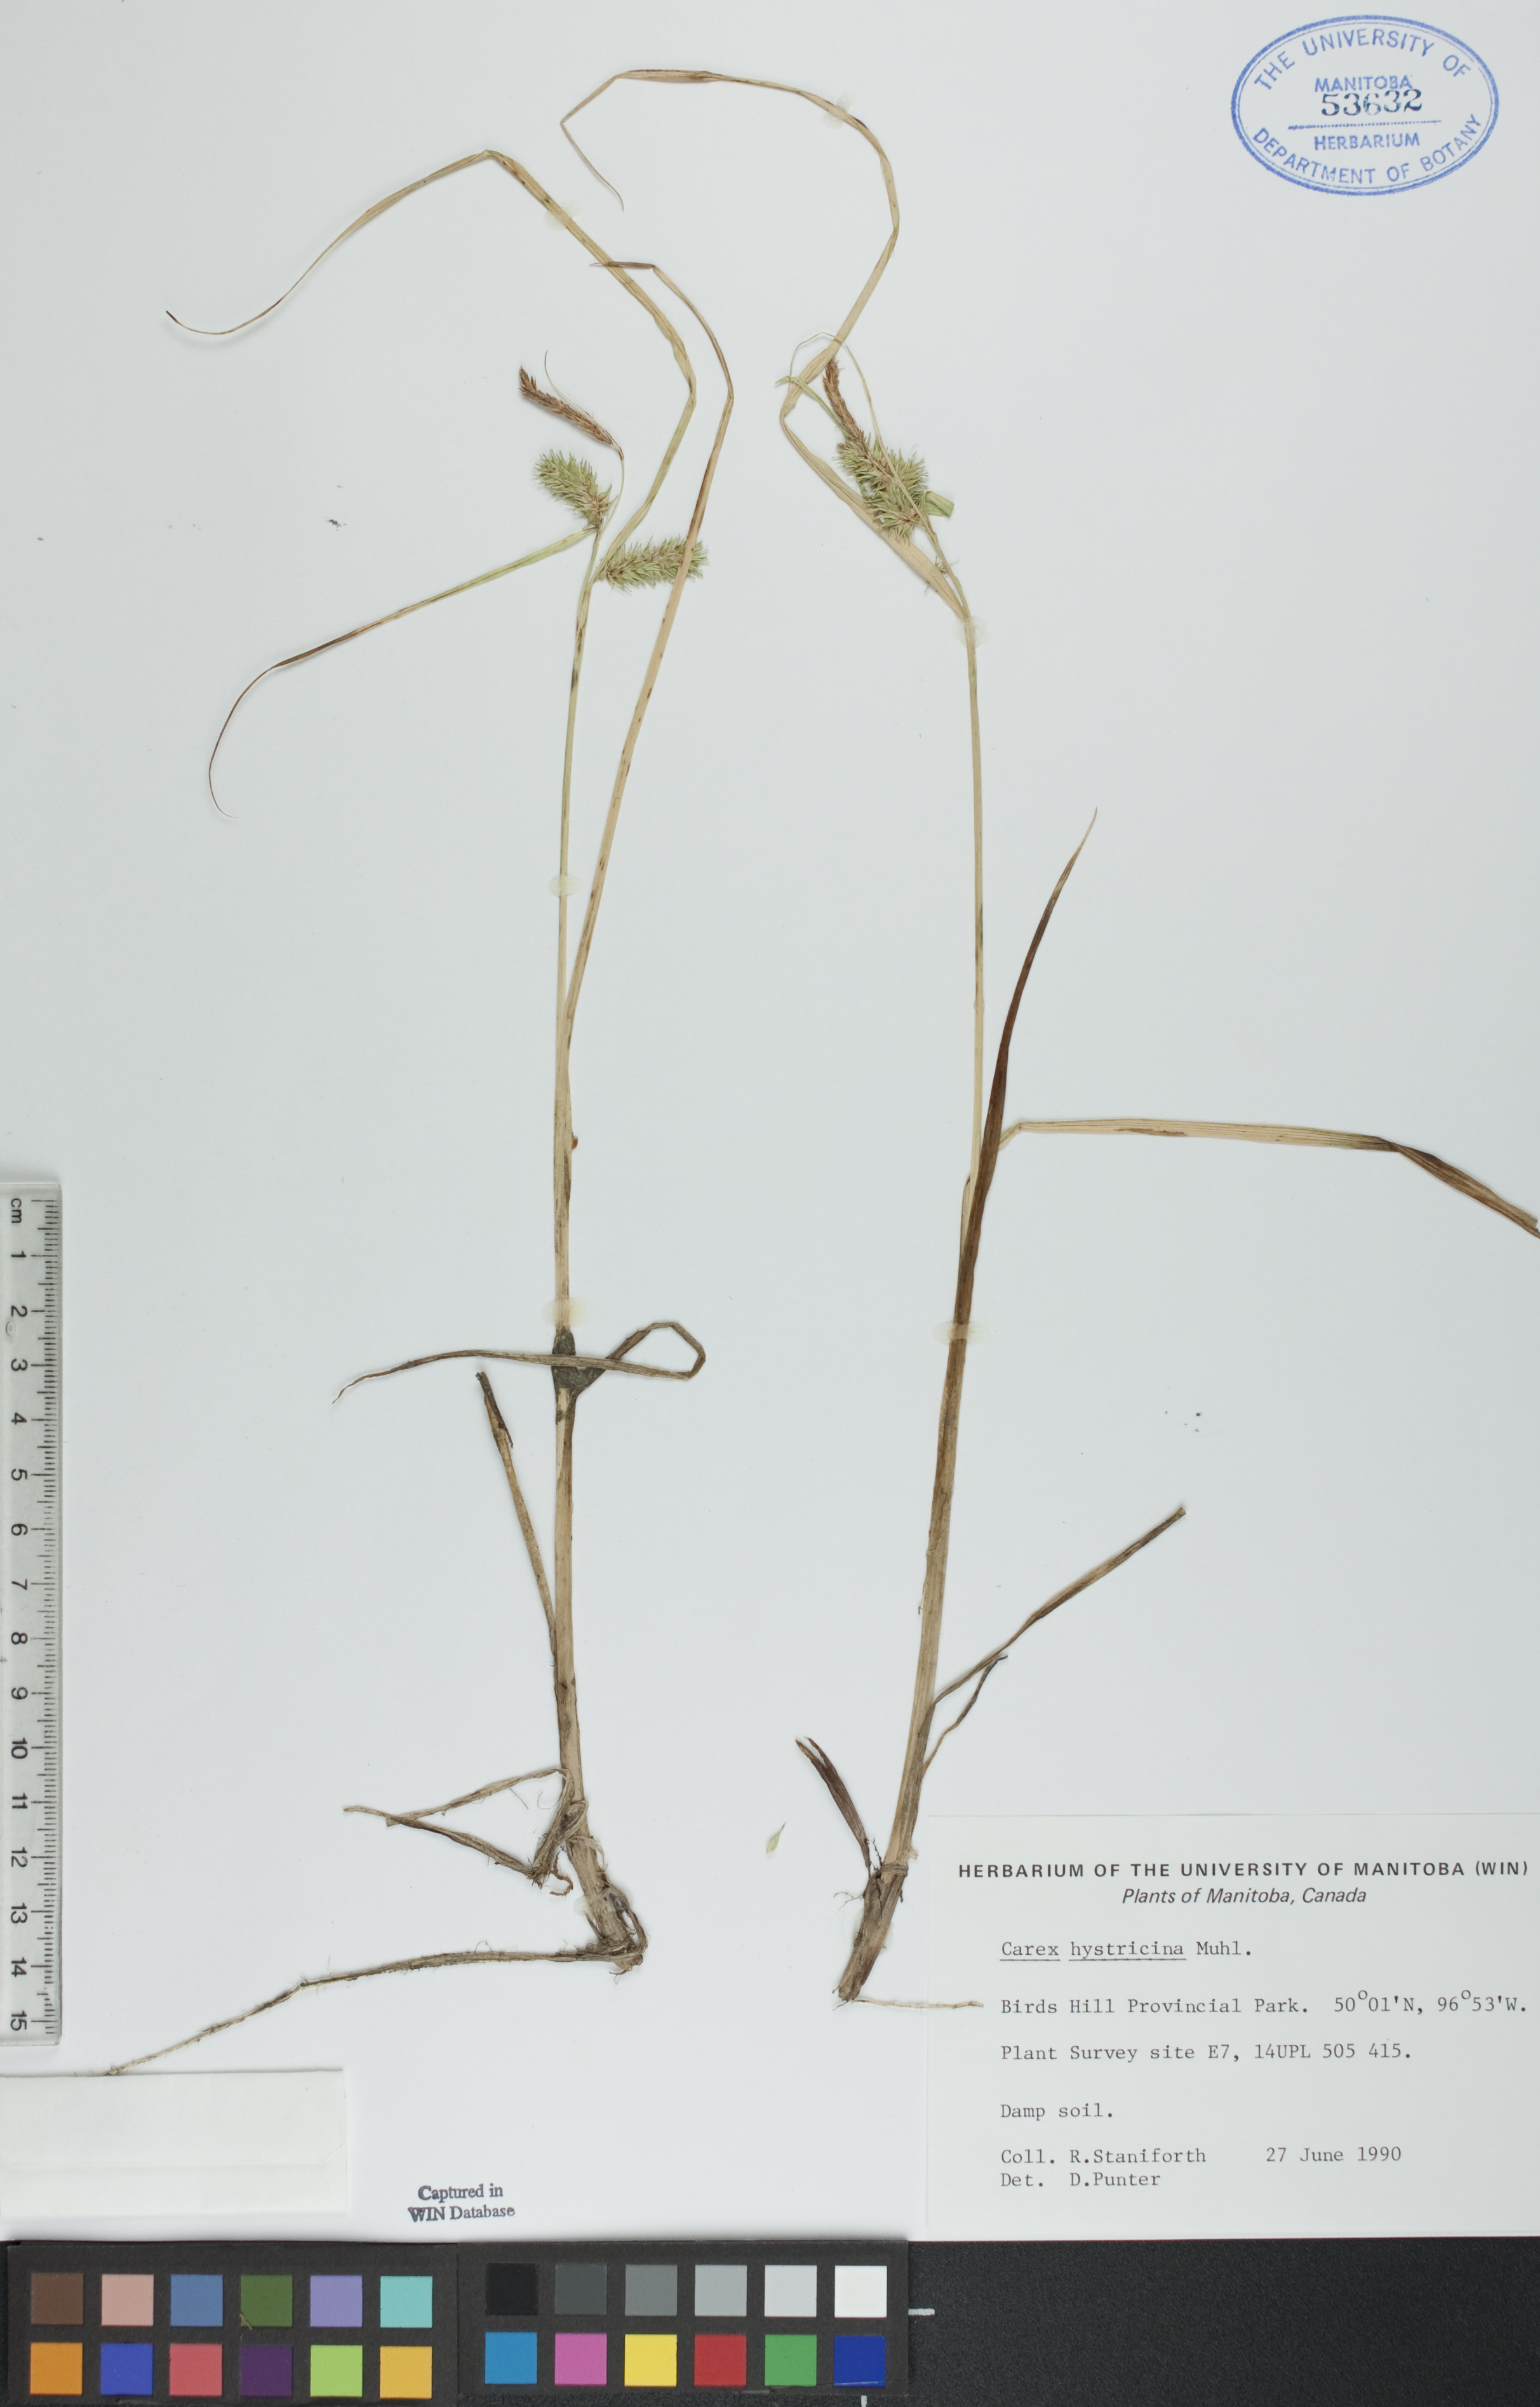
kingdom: Plantae
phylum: Tracheophyta
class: Liliopsida
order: Poales
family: Cyperaceae
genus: Carex
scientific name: Carex hystericina
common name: Bottlebrush sedge
